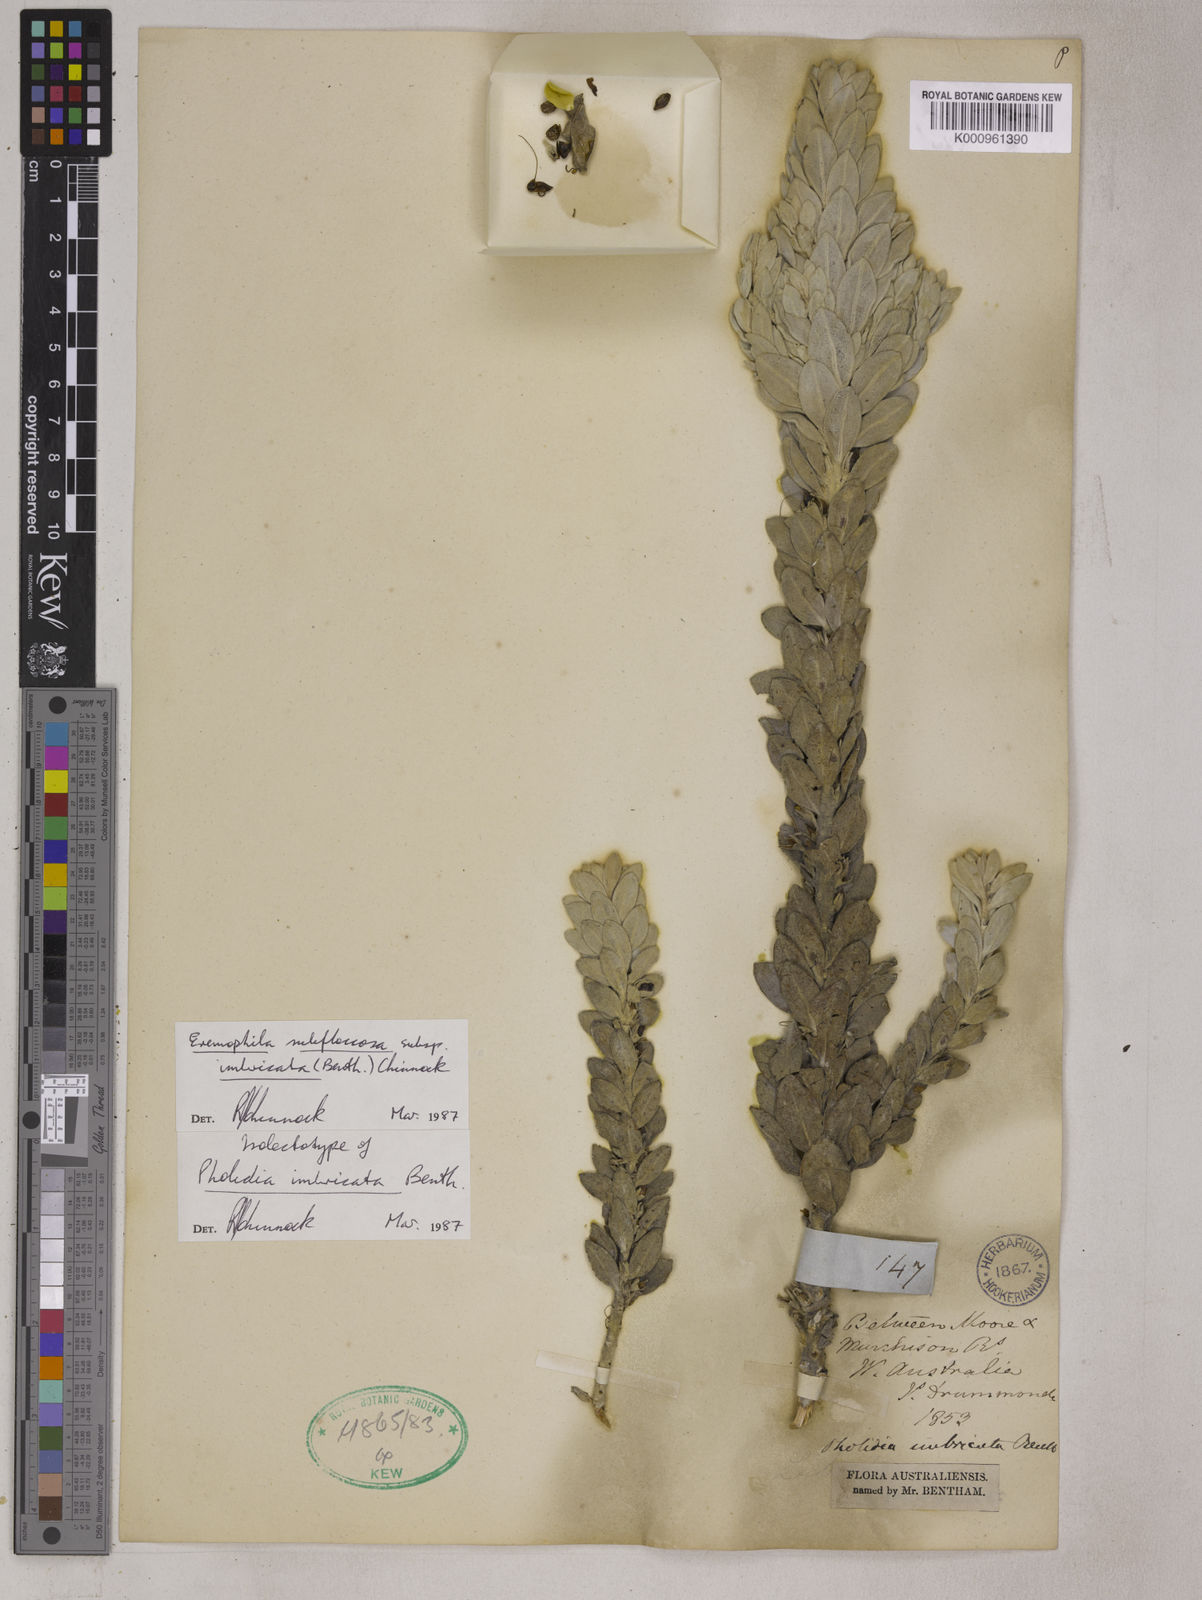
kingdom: Plantae
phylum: Tracheophyta
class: Magnoliopsida
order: Lamiales
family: Scrophulariaceae
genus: Eremophila
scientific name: Eremophila subfloccosa
